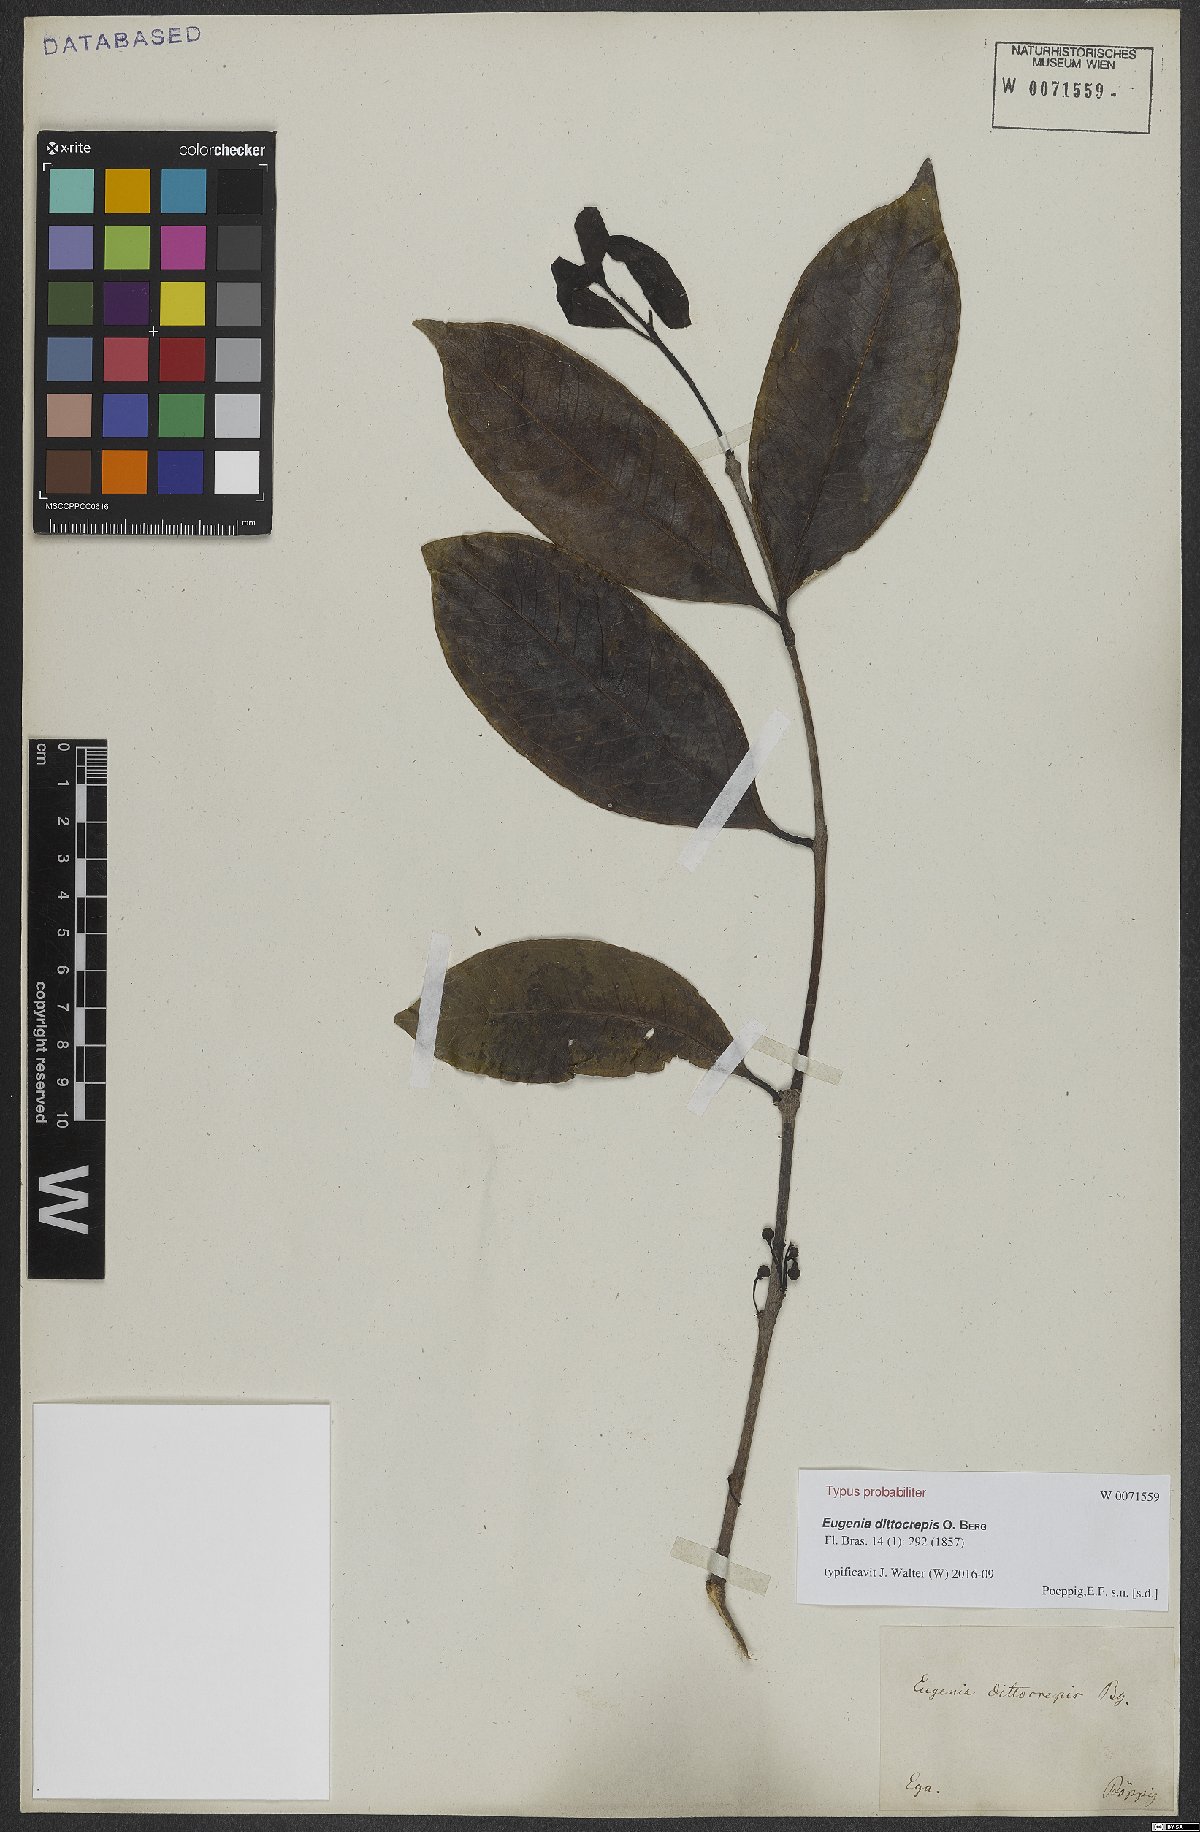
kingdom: Plantae
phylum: Tracheophyta
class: Magnoliopsida
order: Myrtales
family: Myrtaceae
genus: Eugenia
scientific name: Eugenia dittocrepis
